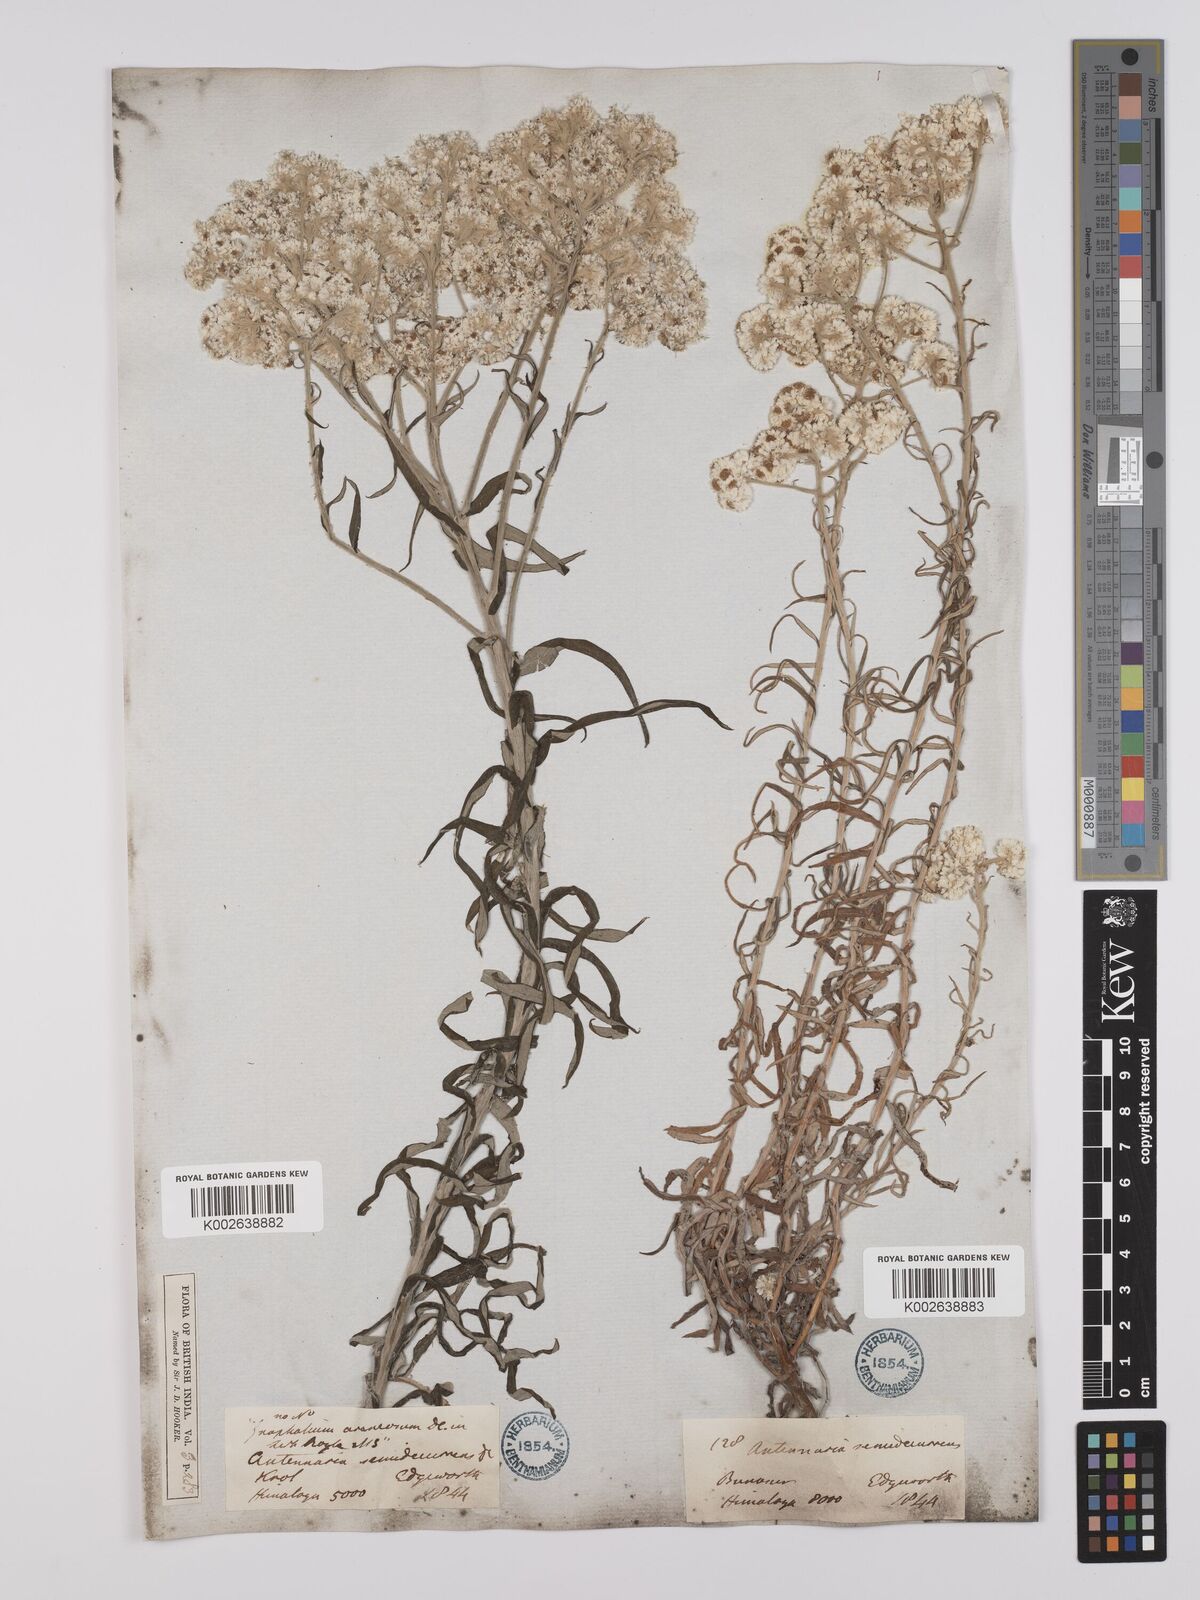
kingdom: Plantae
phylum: Tracheophyta
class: Magnoliopsida
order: Asterales
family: Asteraceae
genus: Anaphalis
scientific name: Anaphalis busua
